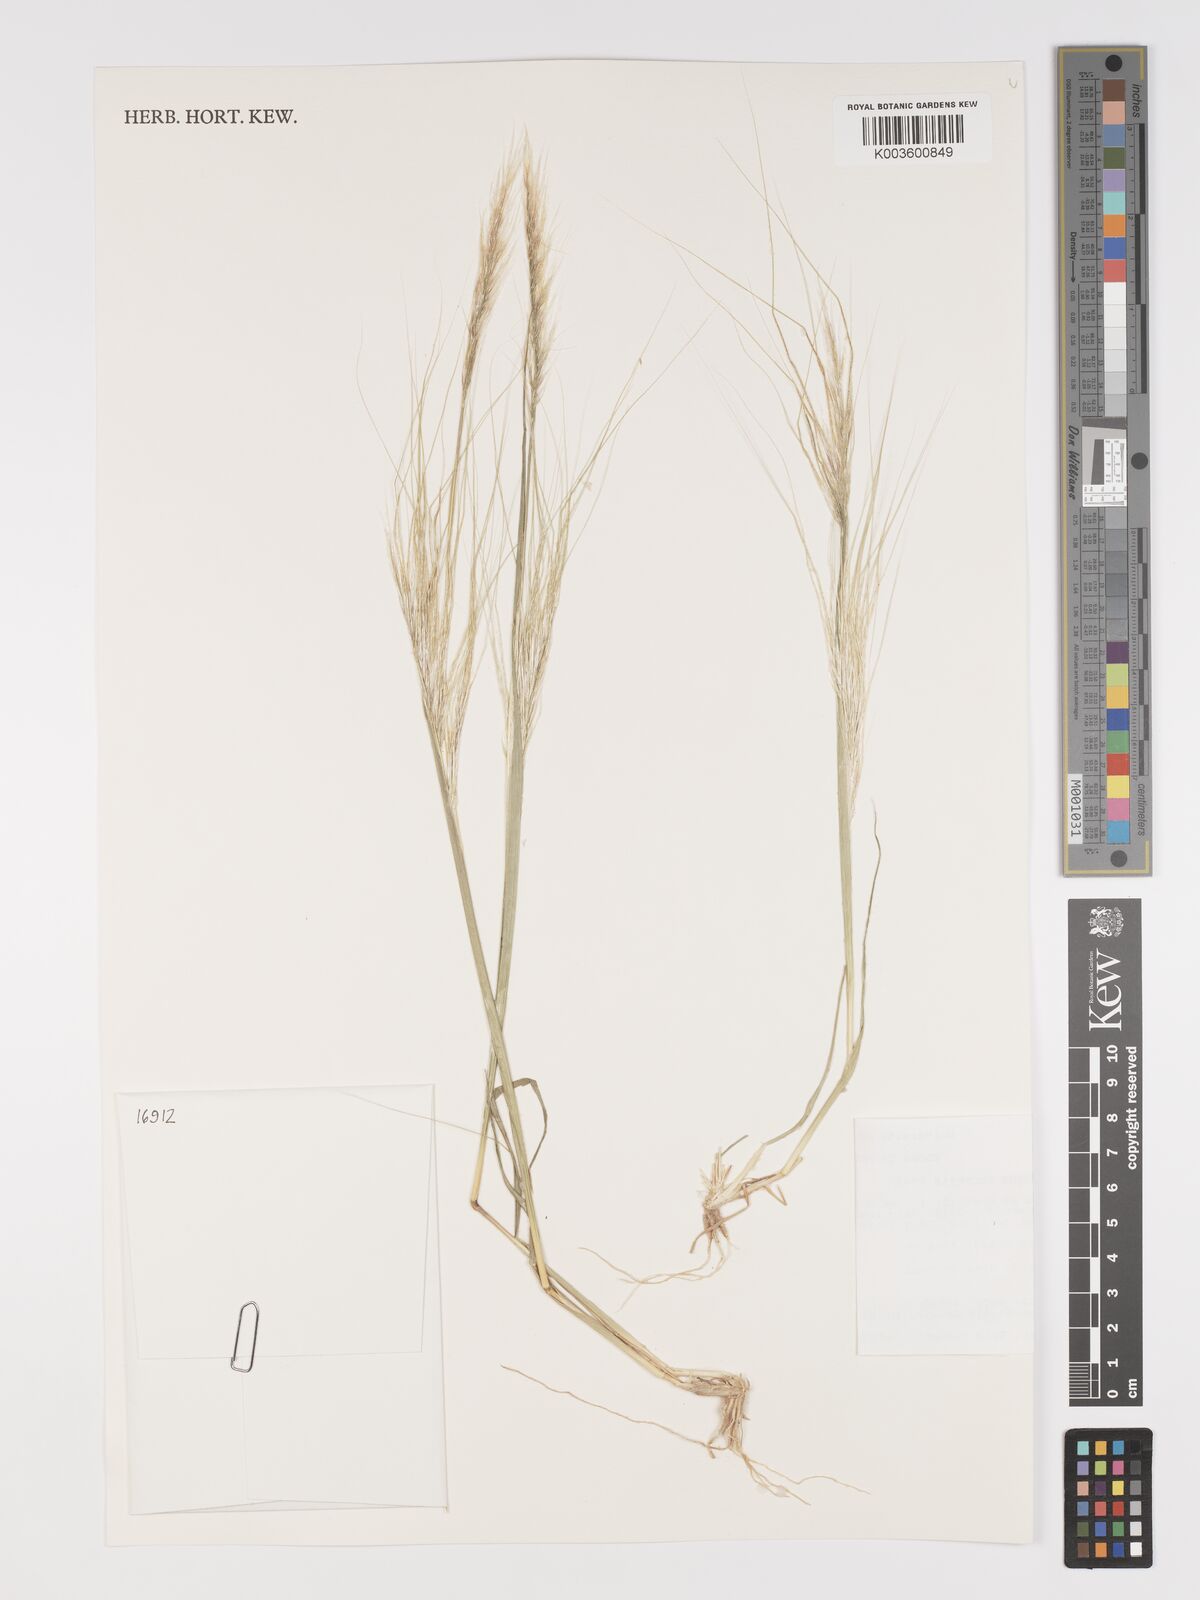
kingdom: Plantae
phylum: Tracheophyta
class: Liliopsida
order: Poales
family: Poaceae
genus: Stipellula
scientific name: Stipellula capensis
